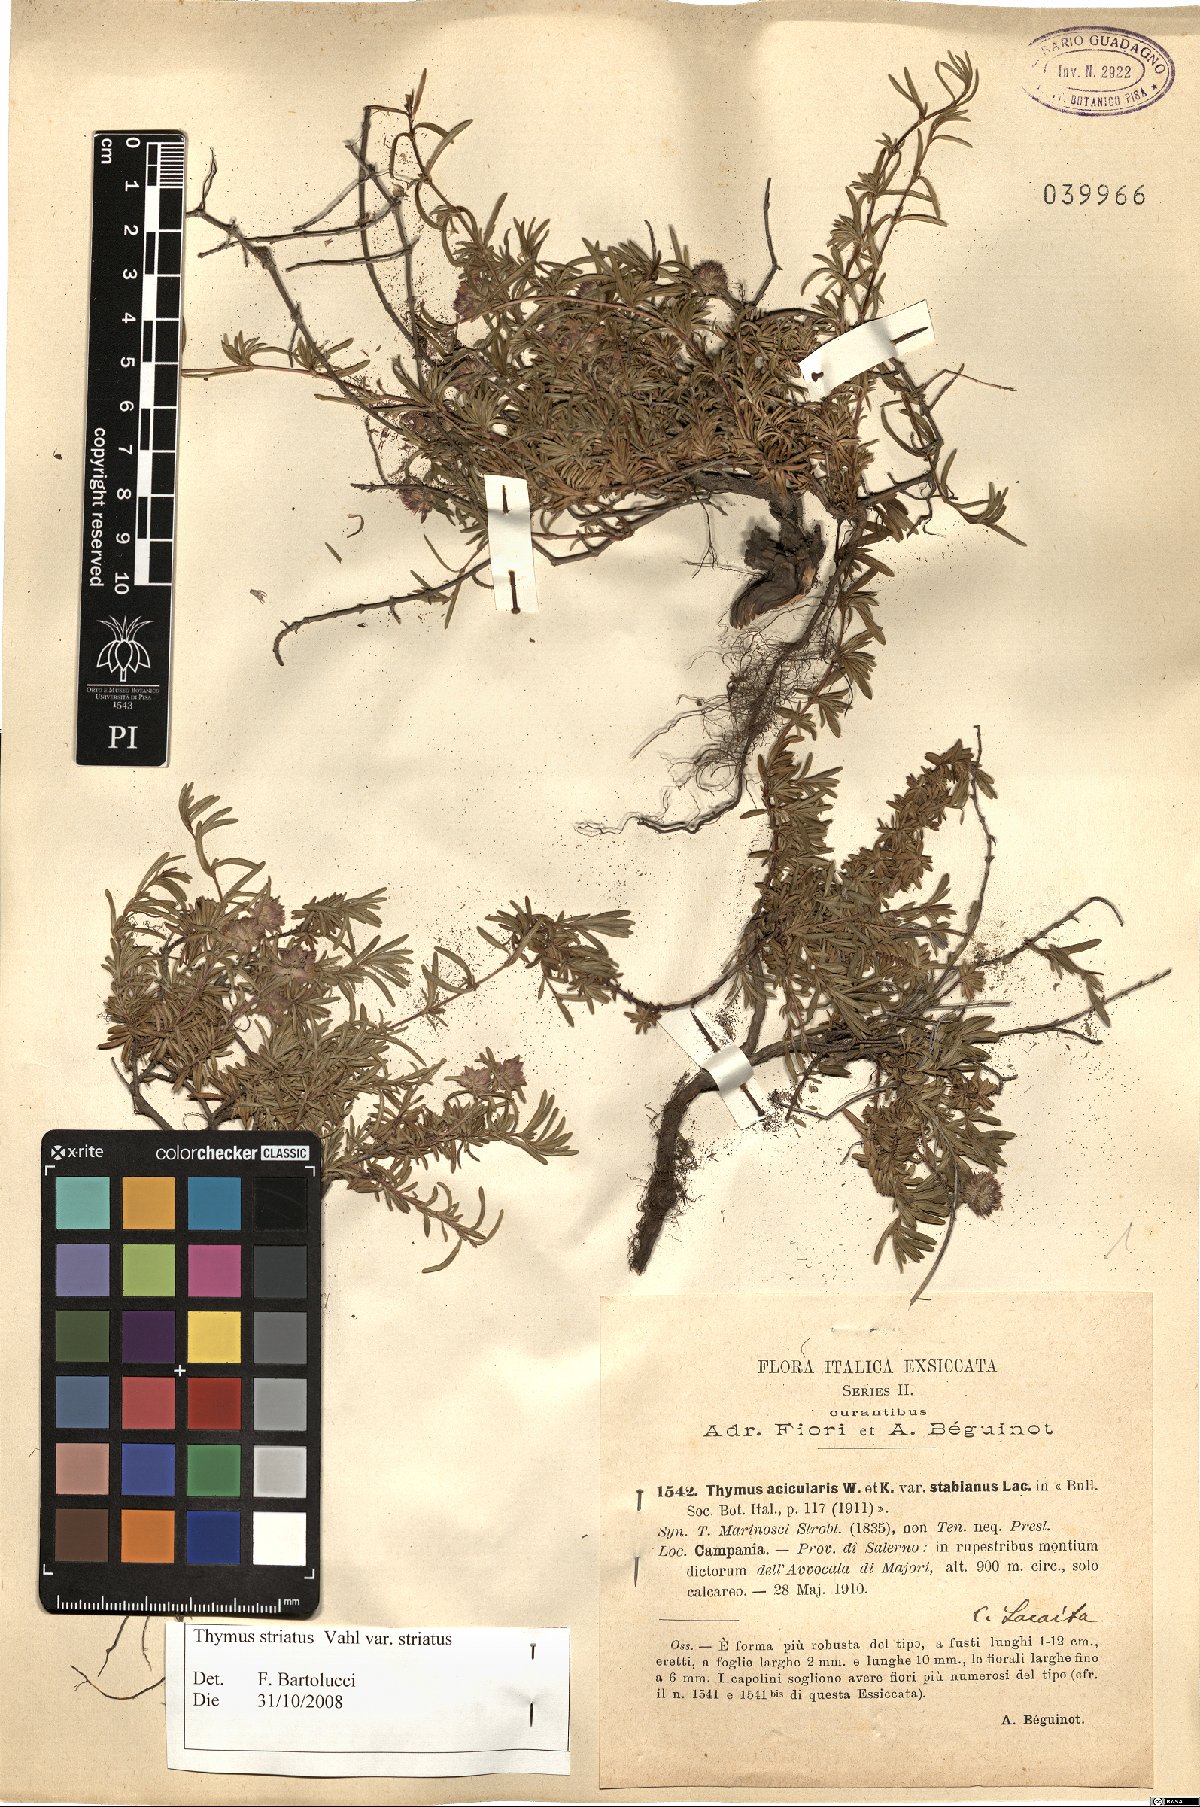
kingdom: Plantae
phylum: Tracheophyta
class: Magnoliopsida
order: Lamiales
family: Lamiaceae
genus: Thymus
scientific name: Thymus striatus
